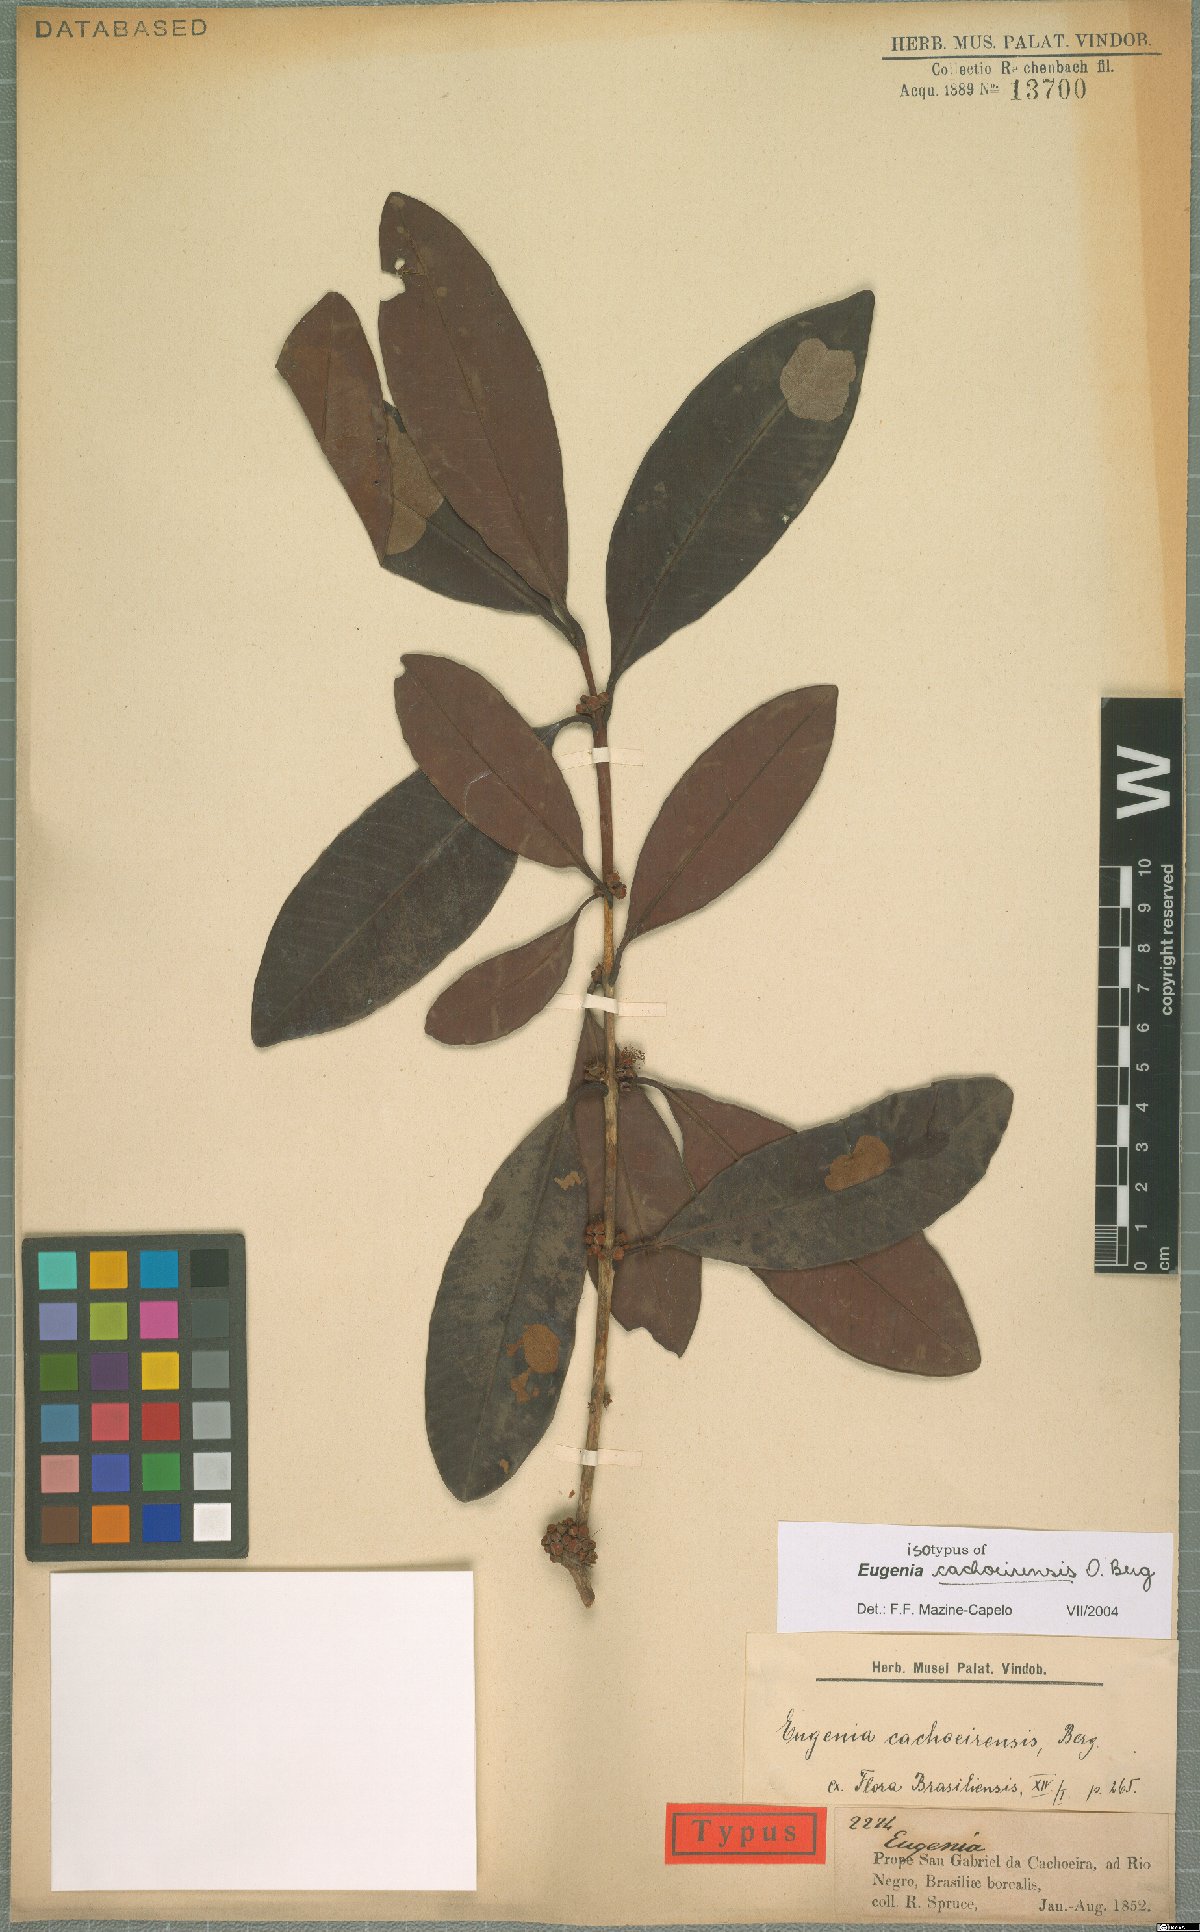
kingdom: Plantae
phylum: Tracheophyta
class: Magnoliopsida
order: Myrtales
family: Myrtaceae
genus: Eugenia
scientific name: Eugenia cachoeirensis
